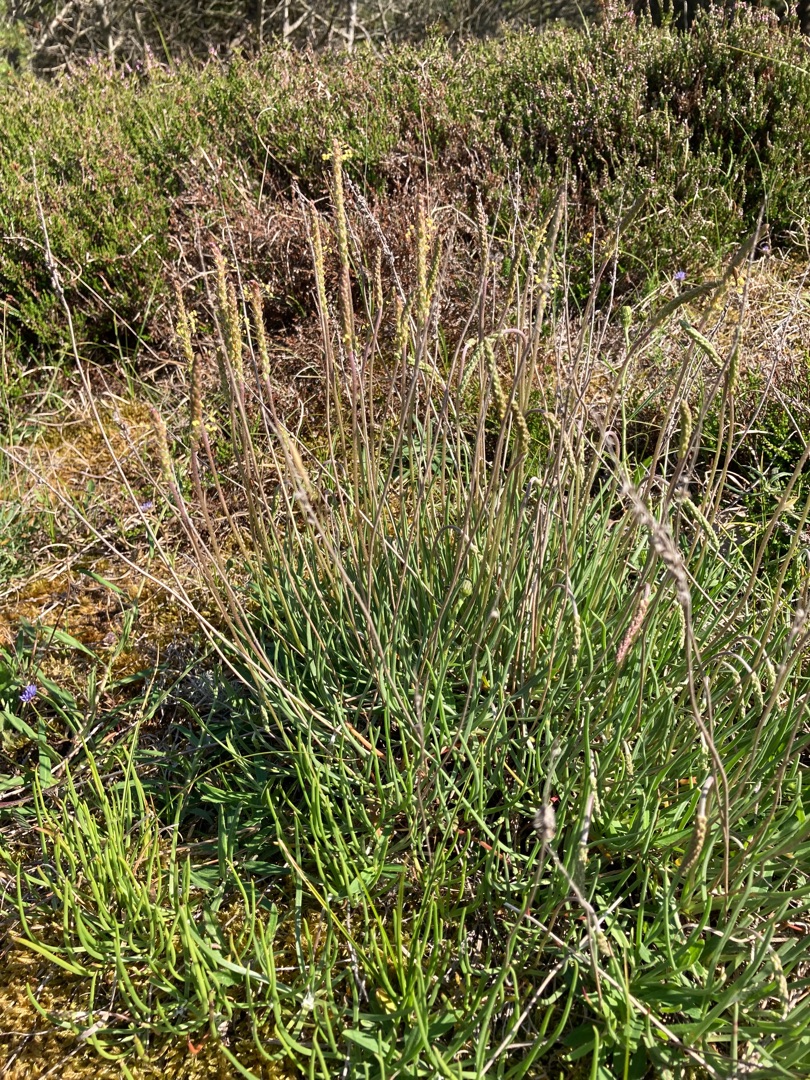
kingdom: Plantae
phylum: Tracheophyta
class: Magnoliopsida
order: Lamiales
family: Plantaginaceae
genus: Plantago
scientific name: Plantago maritima
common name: Strand-vejbred
